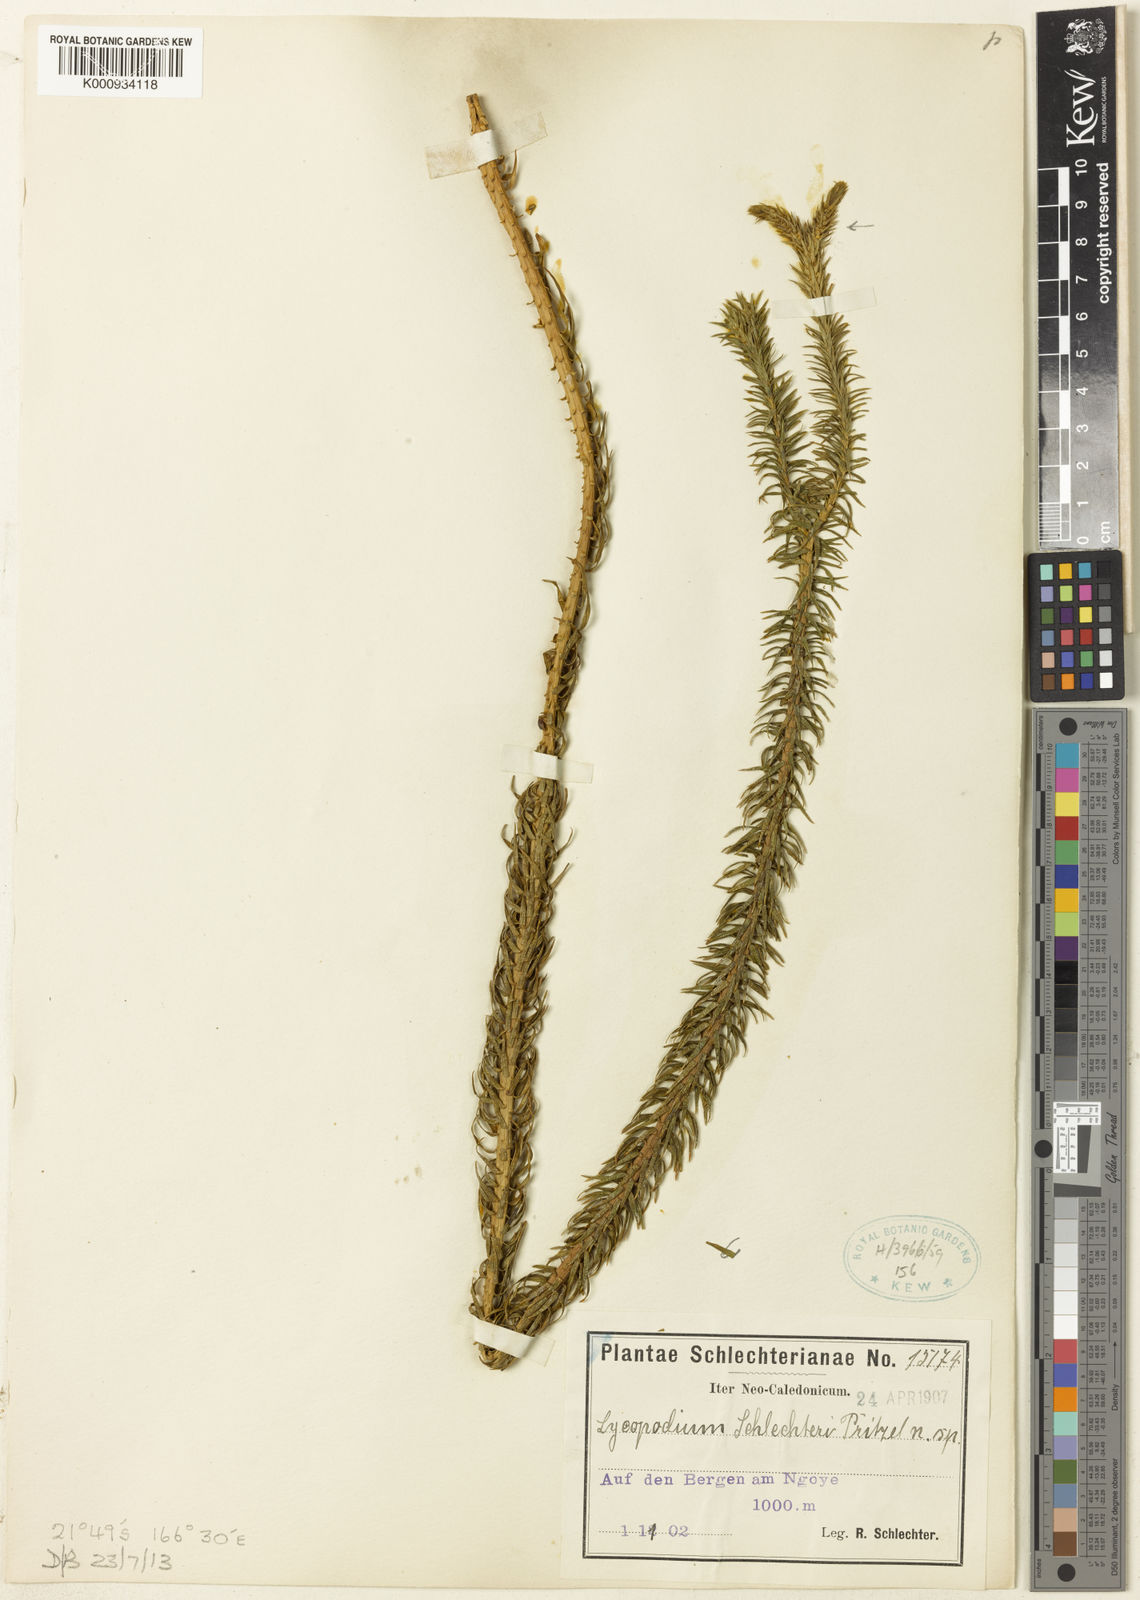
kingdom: Plantae
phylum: Tracheophyta
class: Lycopodiopsida
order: Lycopodiales
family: Lycopodiaceae
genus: Lycopodium
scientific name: Lycopodium
